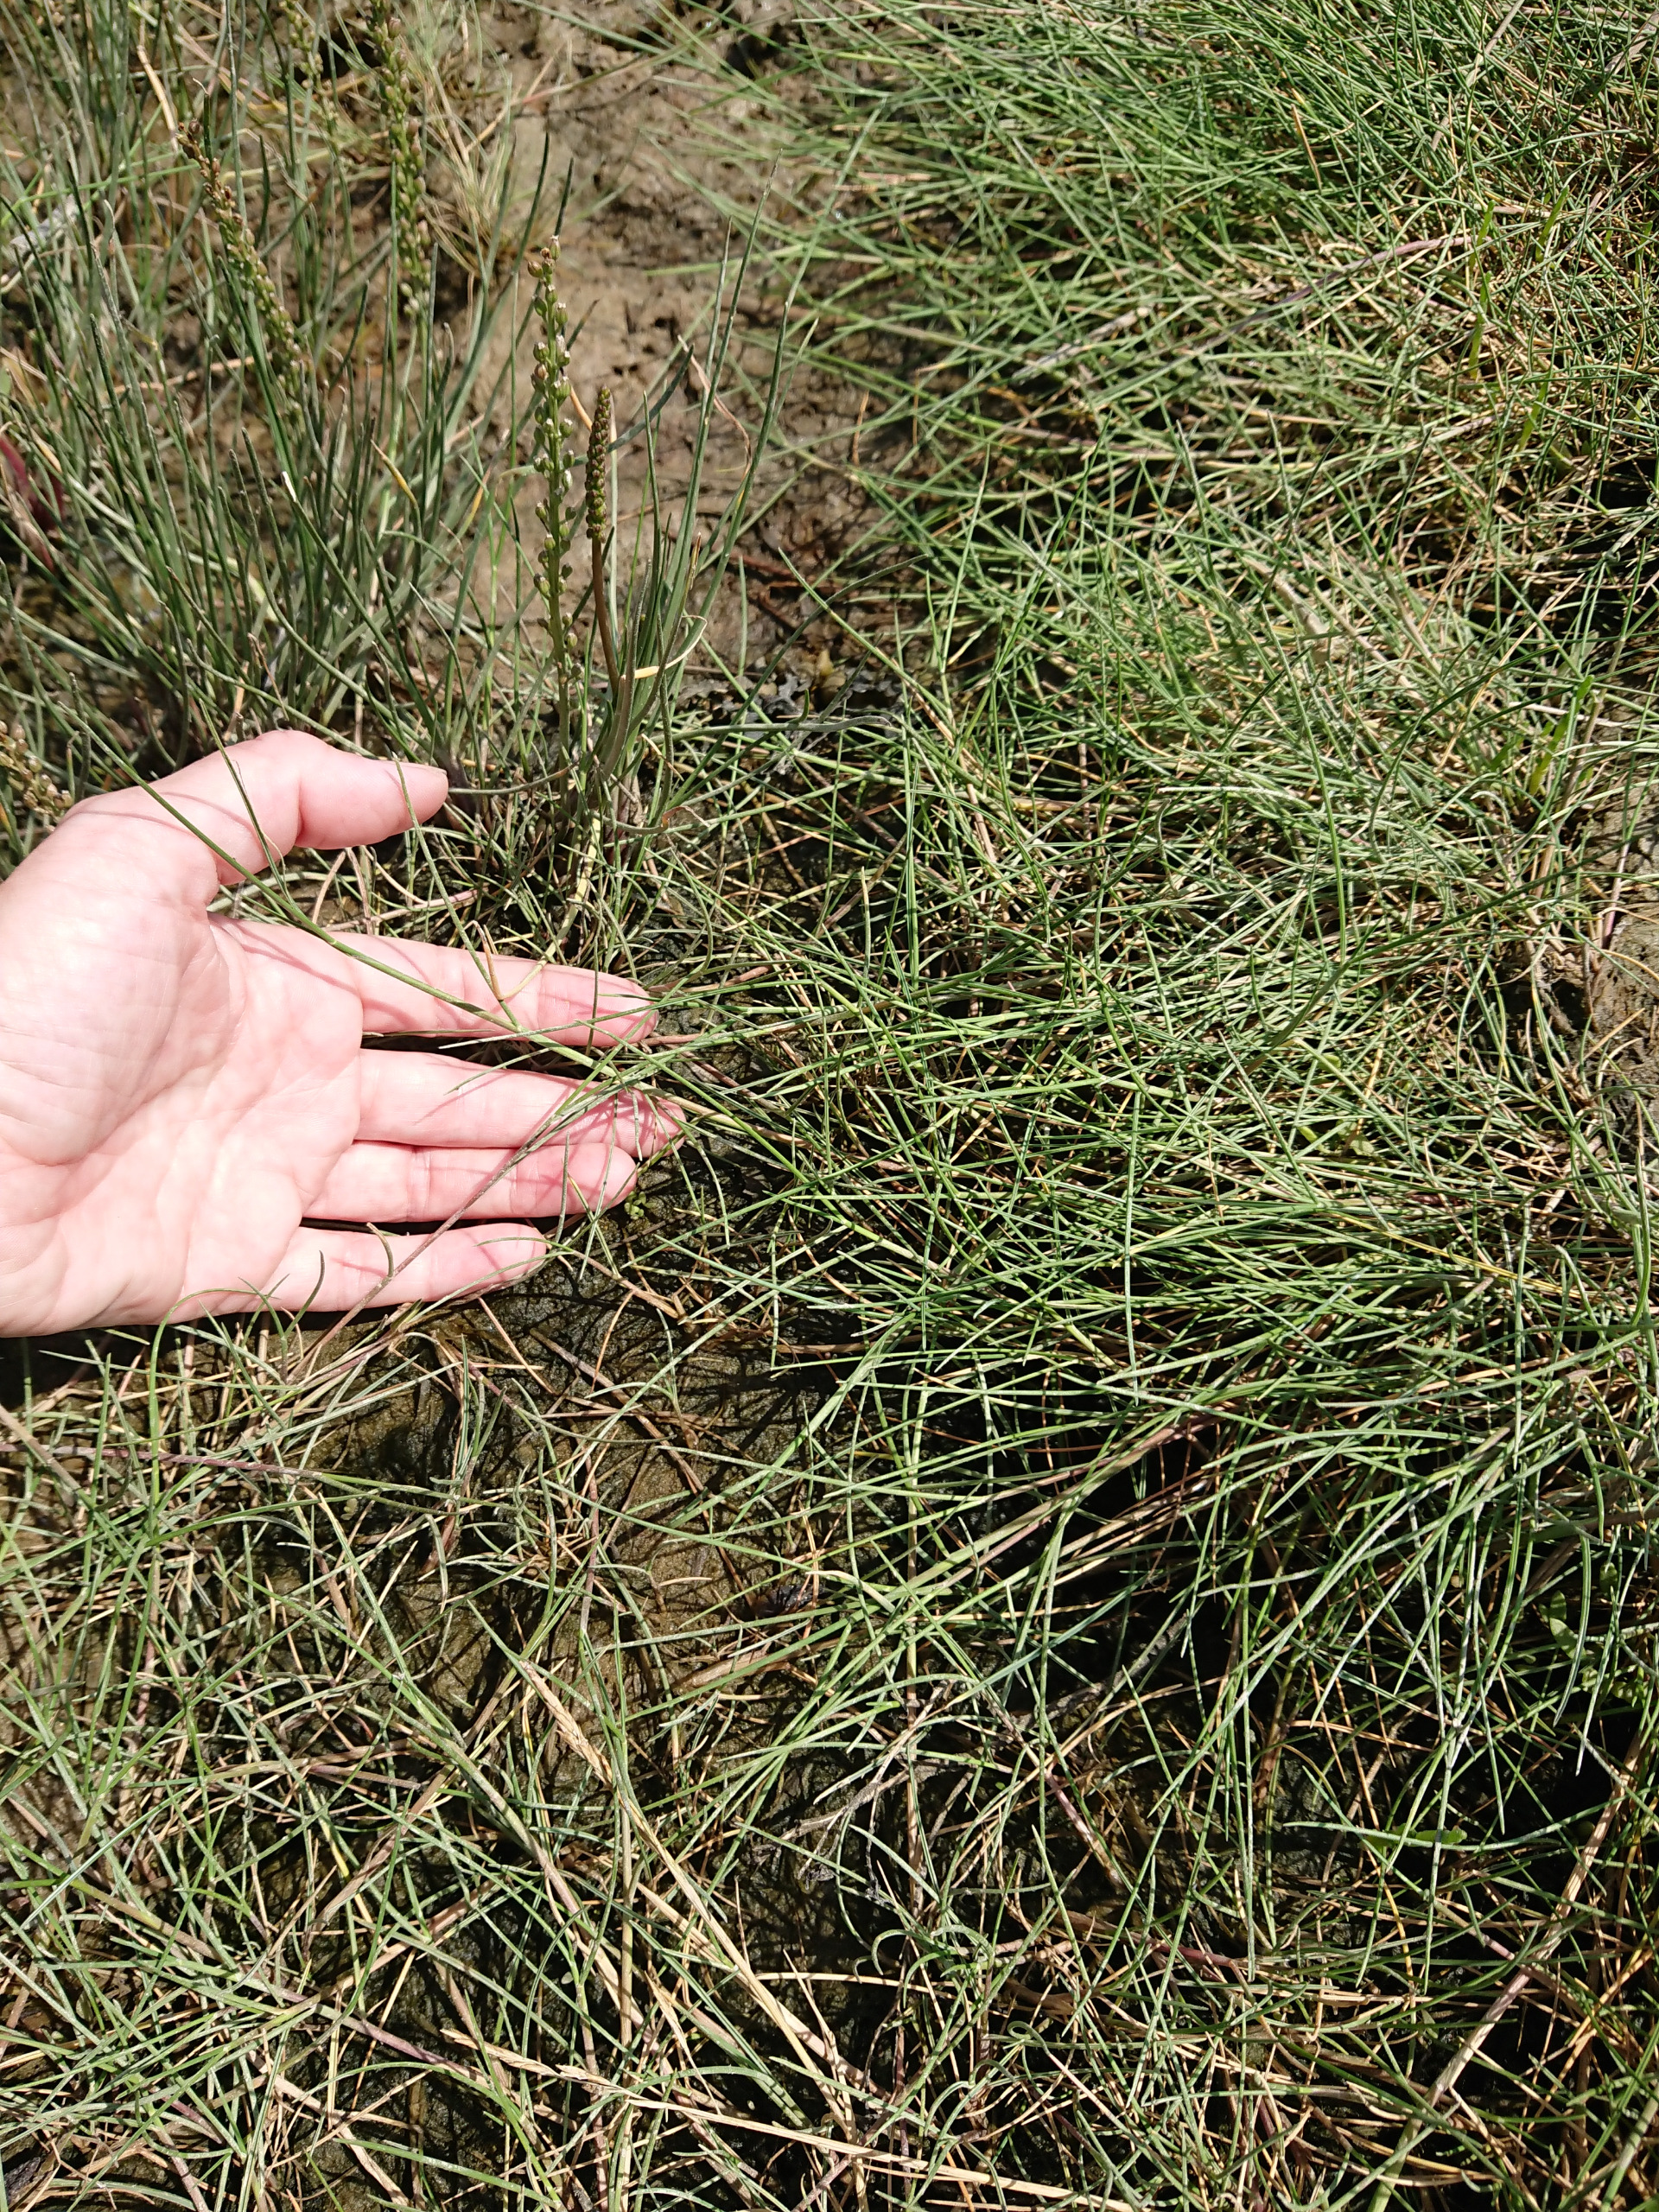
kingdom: Plantae
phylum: Tracheophyta
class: Liliopsida
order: Poales
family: Poaceae
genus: Puccinellia
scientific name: Puccinellia maritima
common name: Strand-annelgræs
